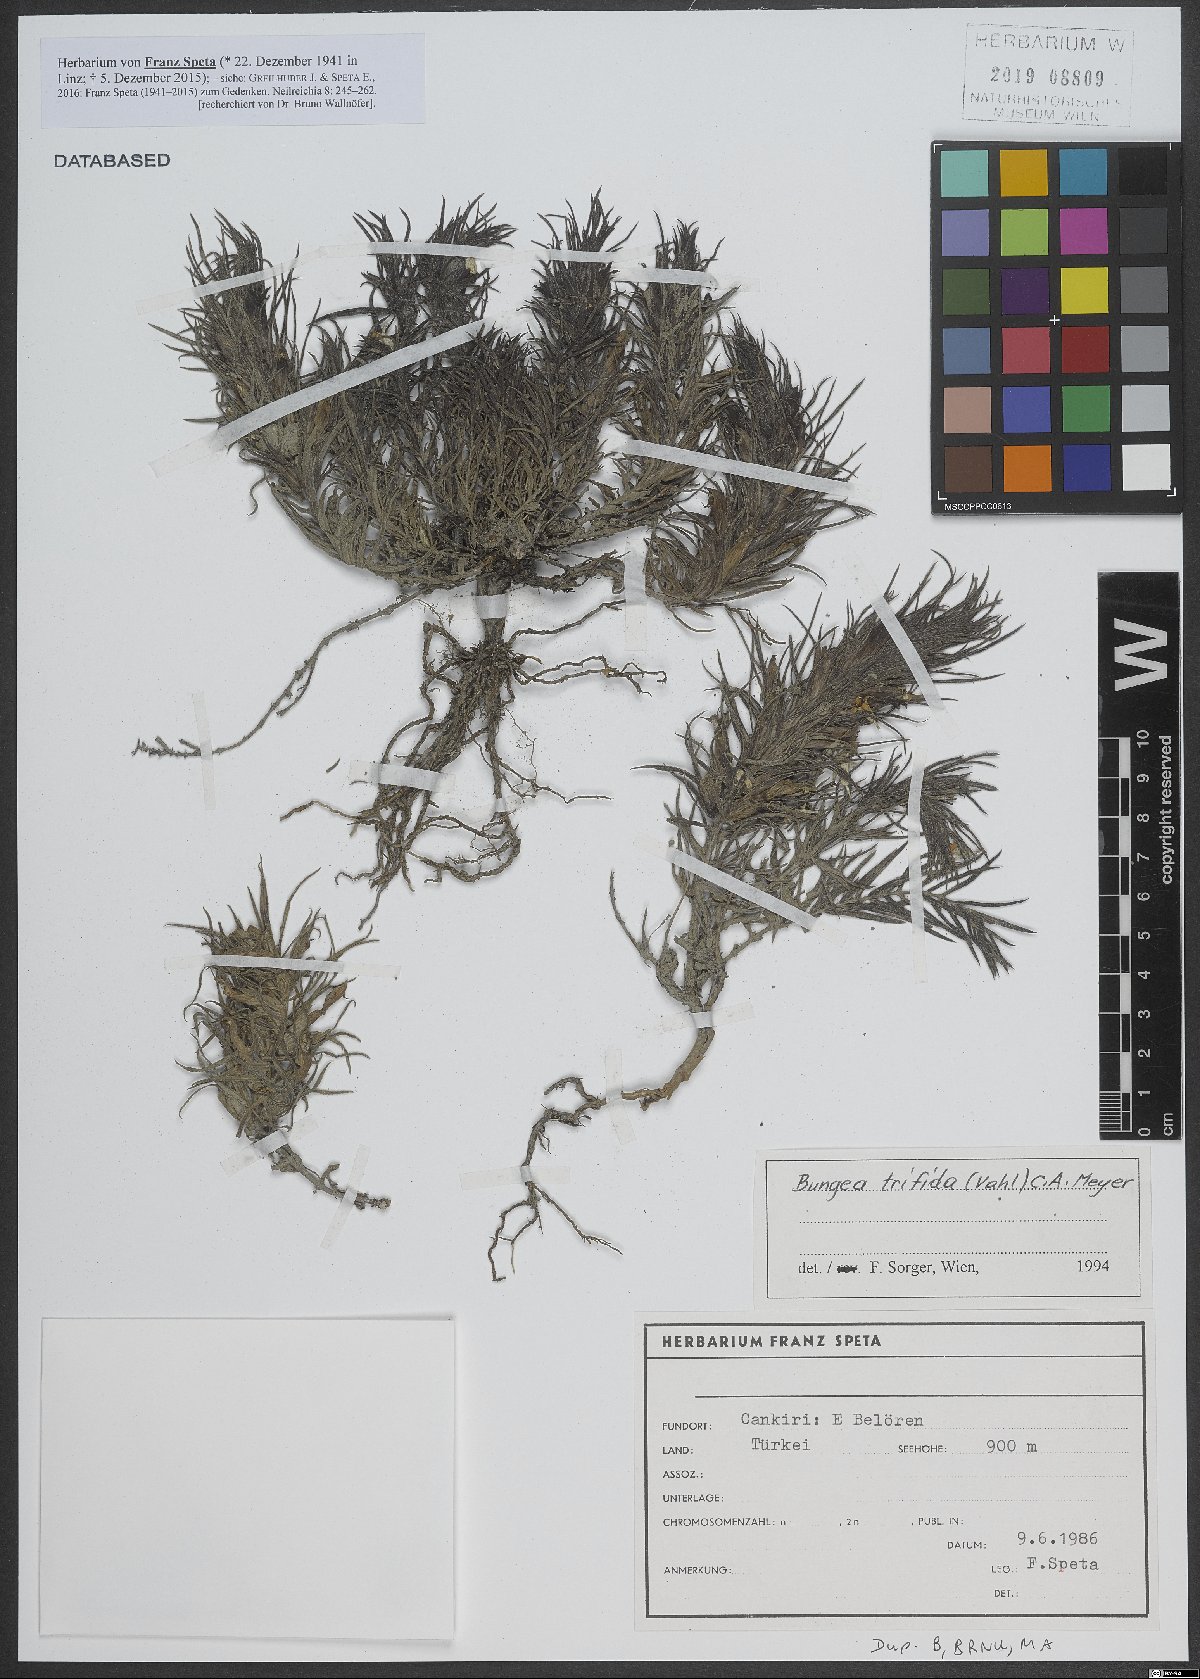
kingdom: Plantae
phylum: Tracheophyta
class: Magnoliopsida
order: Lamiales
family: Orobanchaceae
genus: Bungea
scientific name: Bungea trifida
